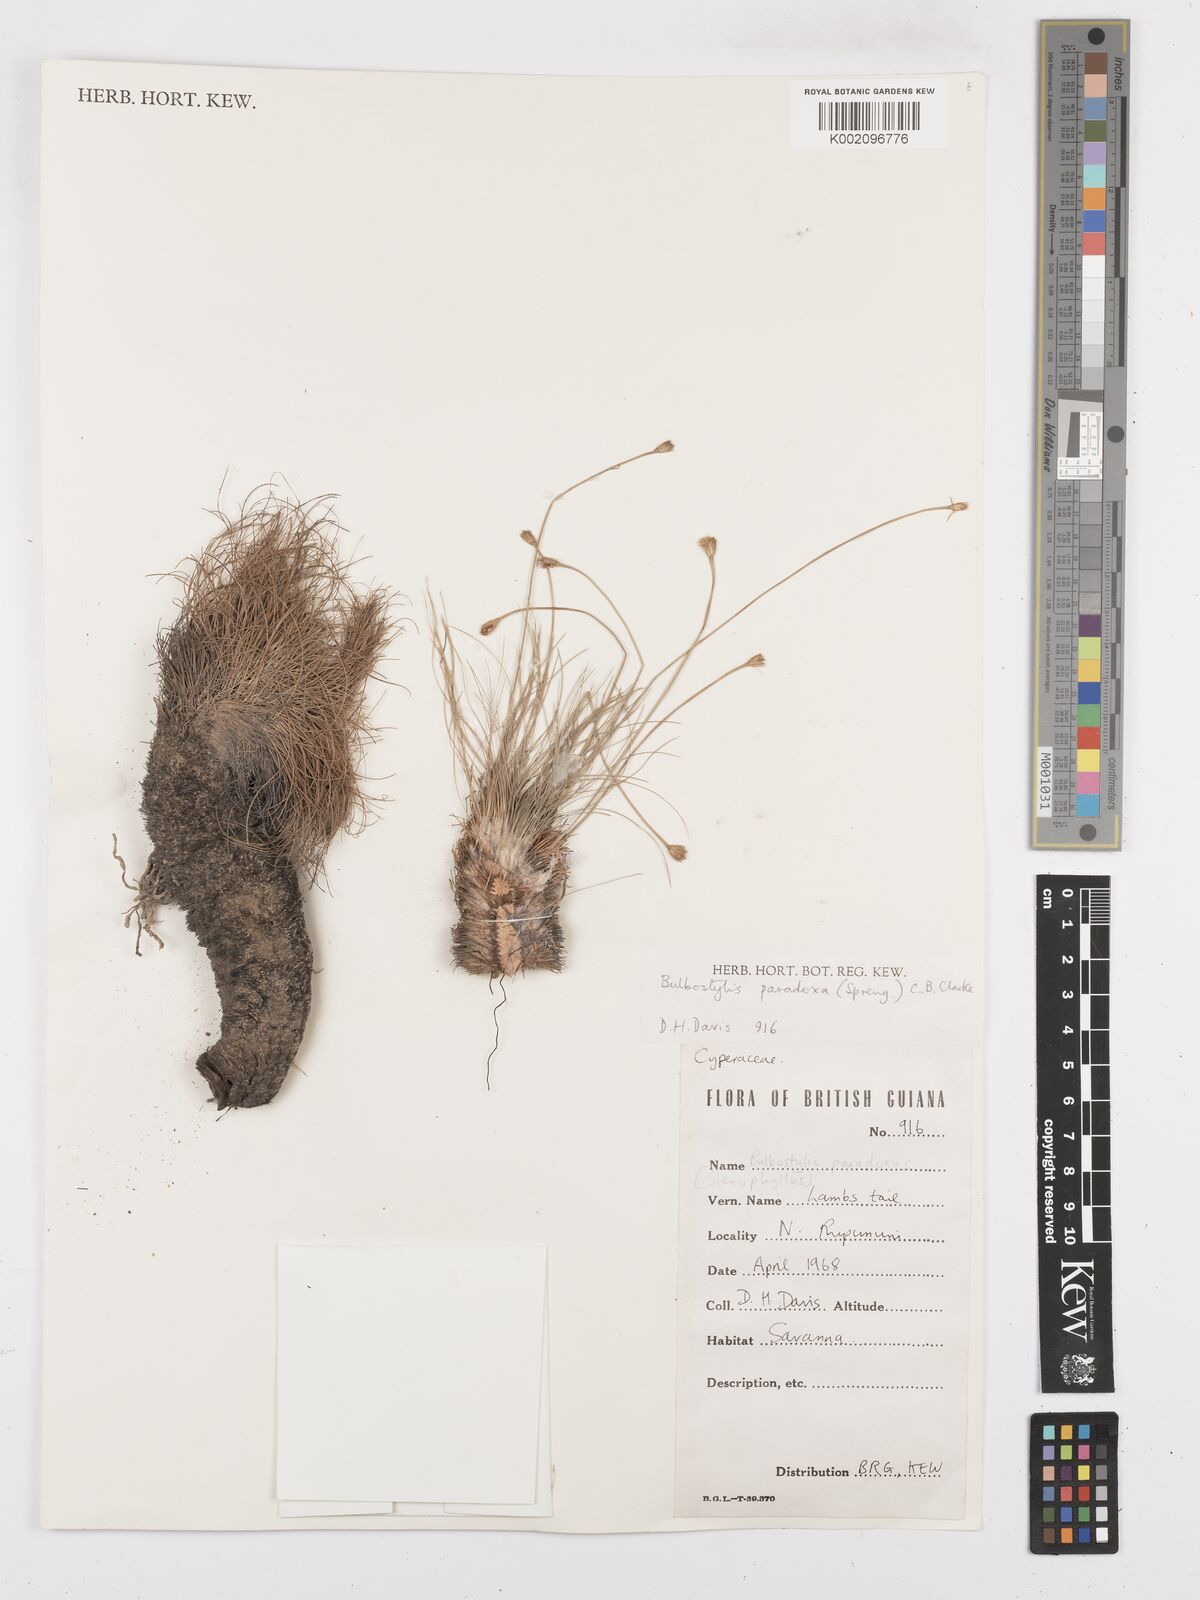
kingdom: Plantae
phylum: Tracheophyta
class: Liliopsida
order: Poales
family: Cyperaceae
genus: Bulbostylis
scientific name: Bulbostylis paradoxa
